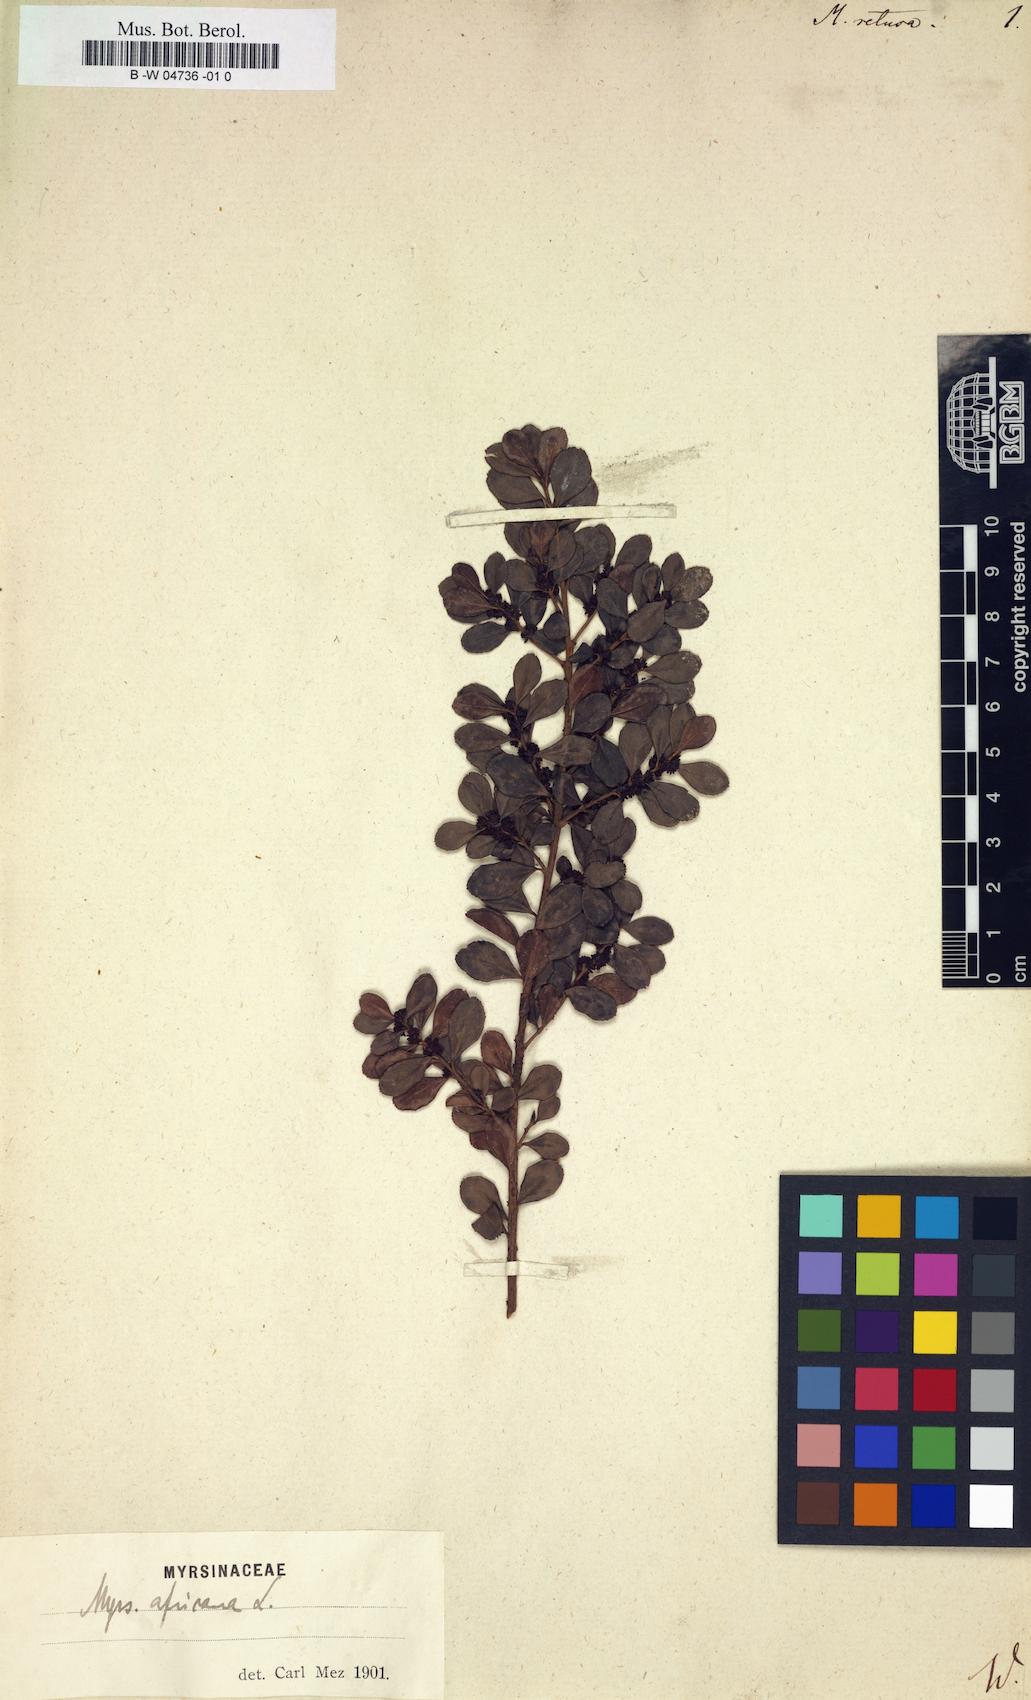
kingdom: Plantae
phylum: Tracheophyta
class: Magnoliopsida
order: Ericales
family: Primulaceae
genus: Myrsine
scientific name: Myrsine retusa
